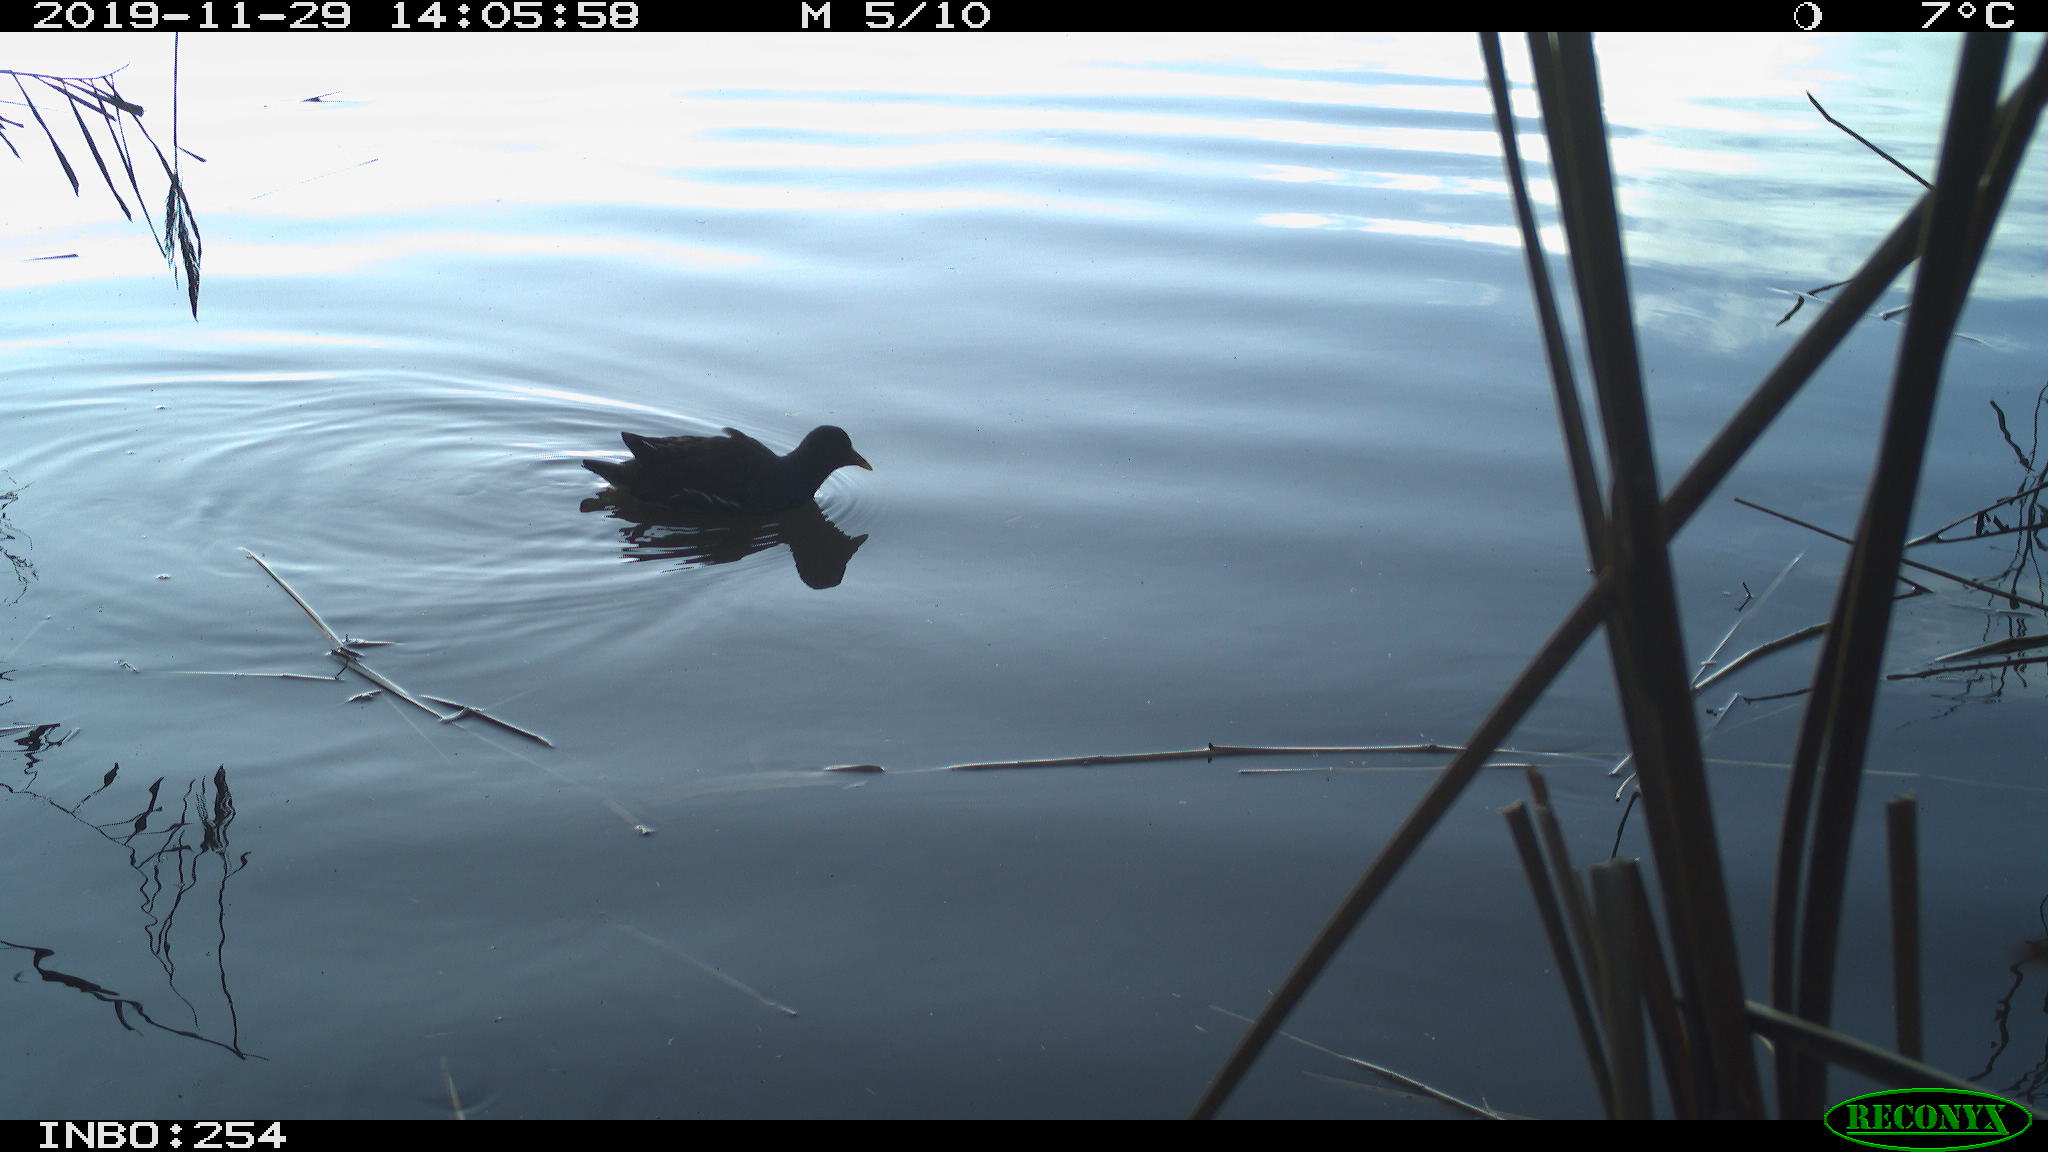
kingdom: Animalia
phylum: Chordata
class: Aves
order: Gruiformes
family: Rallidae
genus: Gallinula
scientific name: Gallinula chloropus
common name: Common moorhen
